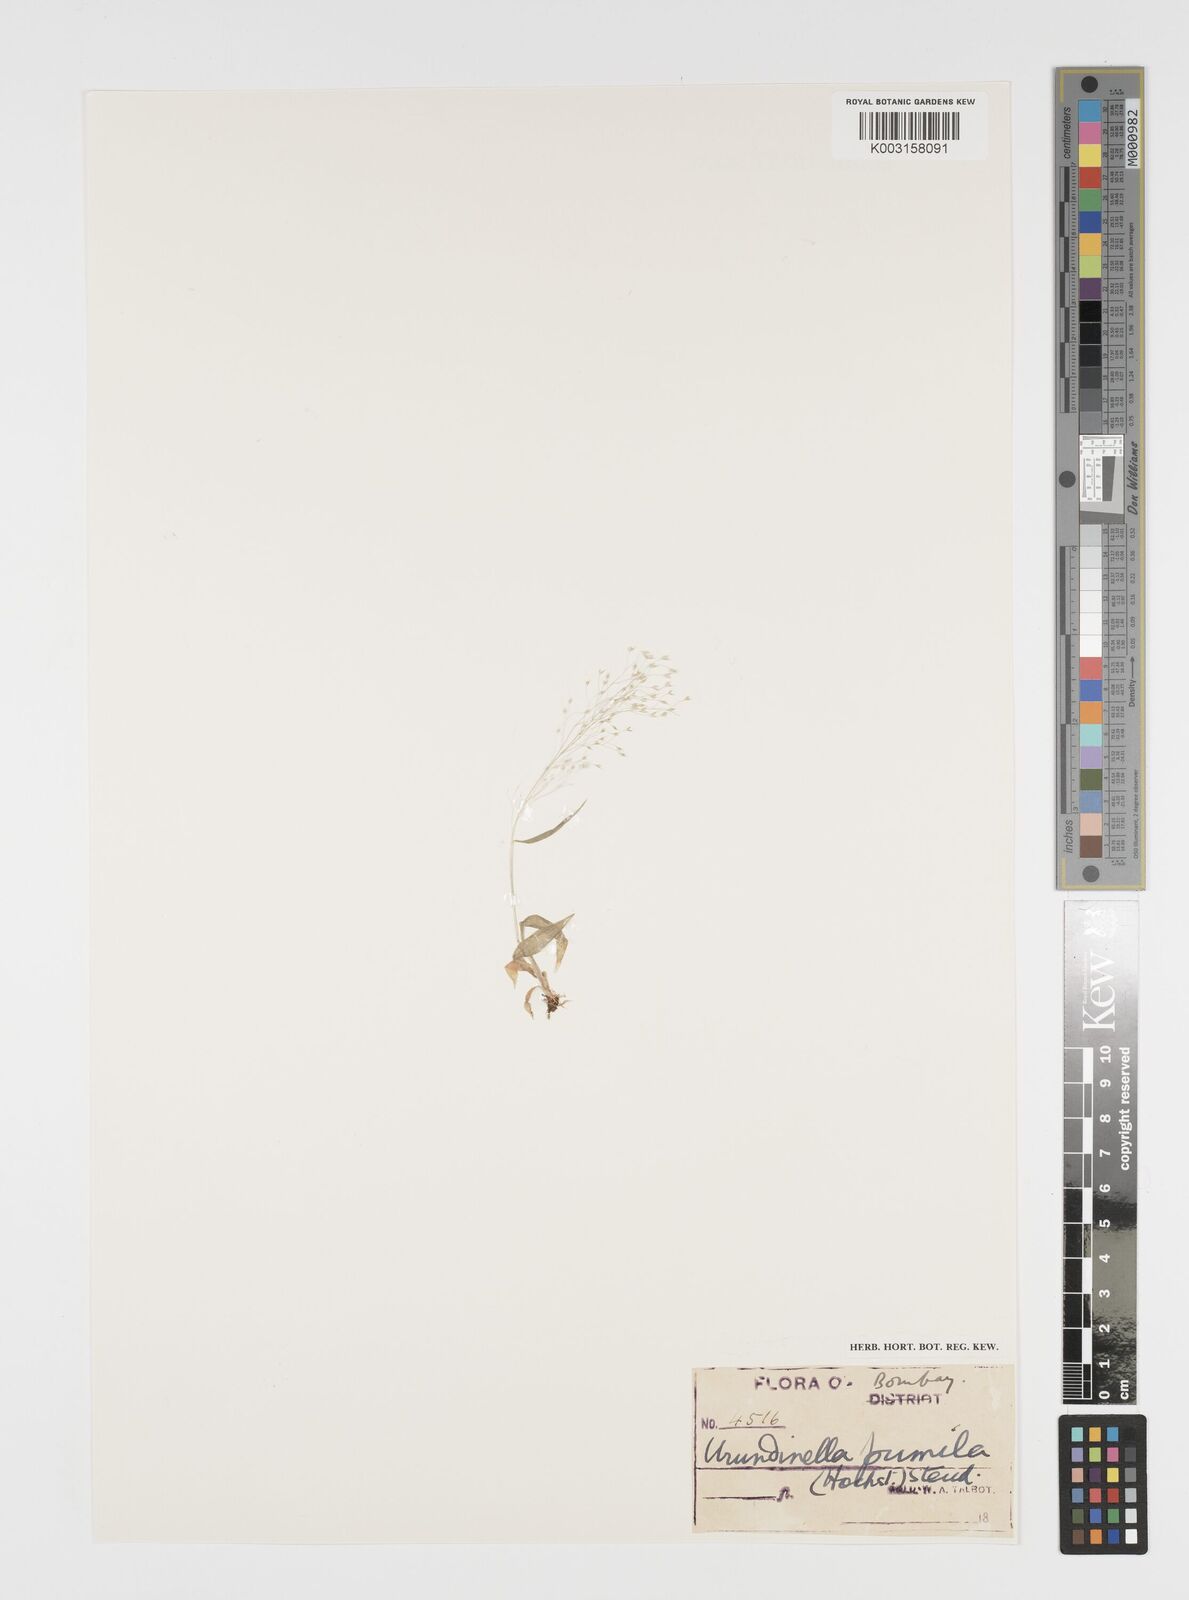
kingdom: Plantae
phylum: Tracheophyta
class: Liliopsida
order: Poales
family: Poaceae
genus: Arundinella
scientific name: Arundinella pumila
